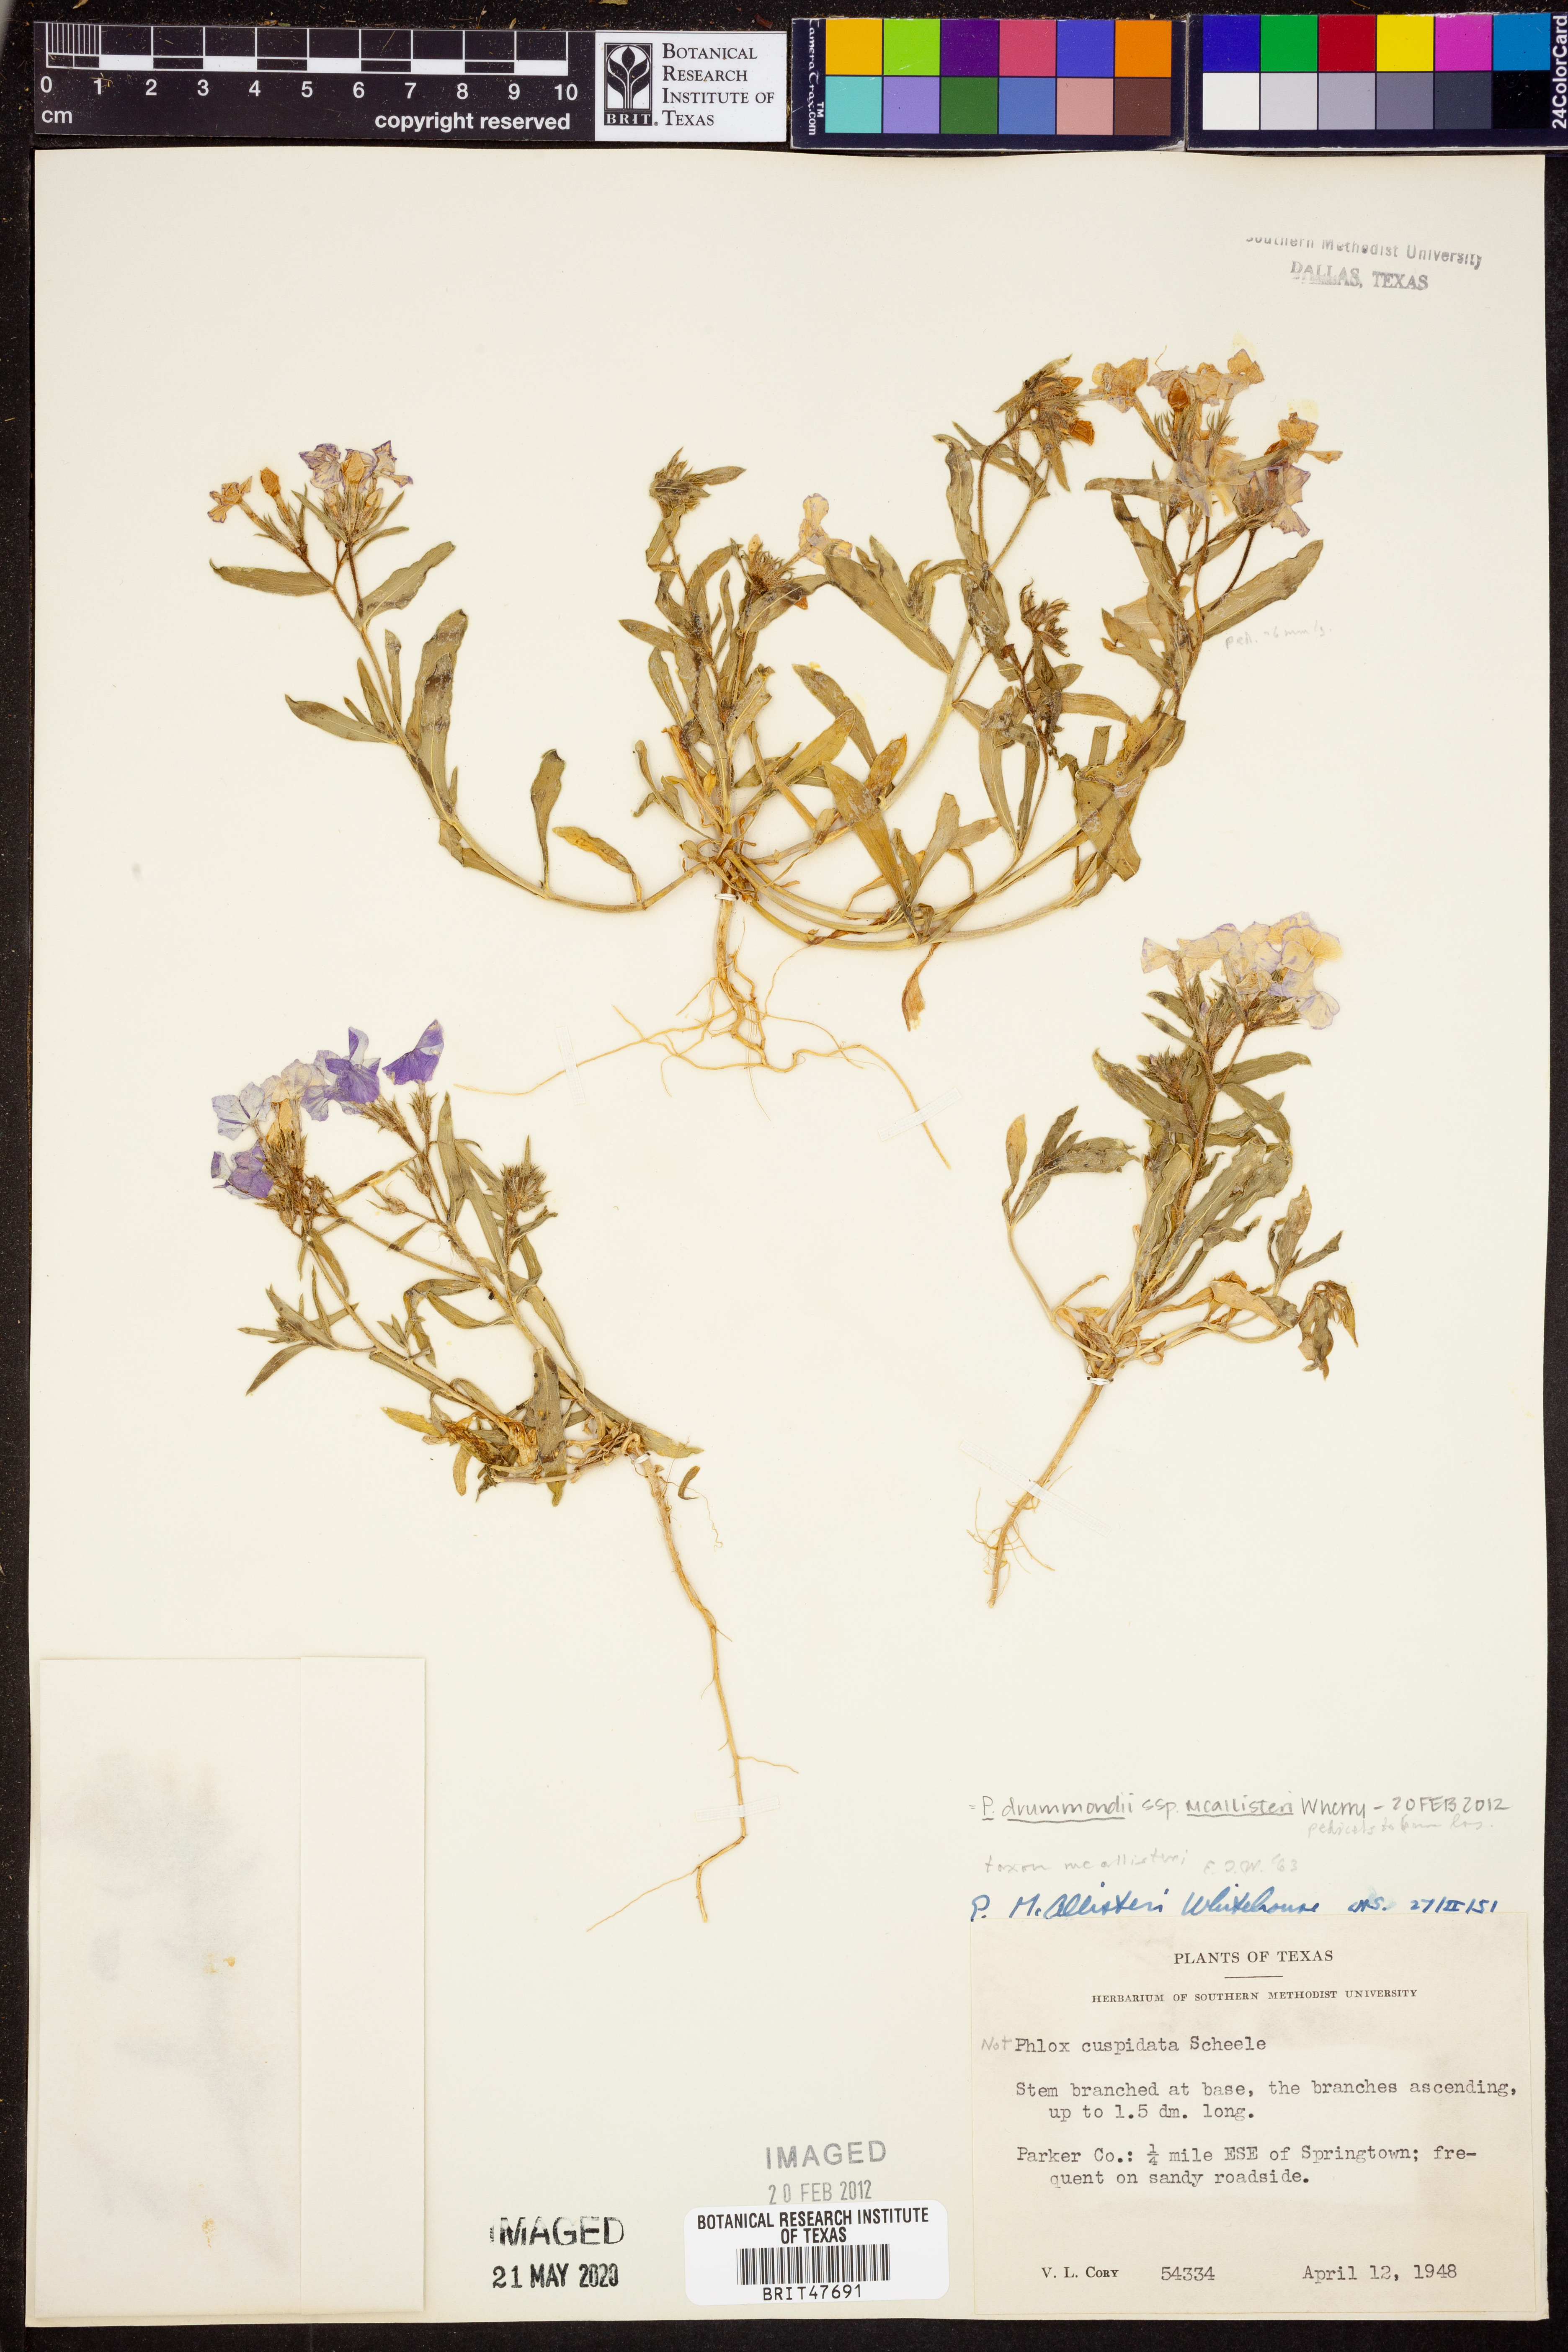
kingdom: Plantae
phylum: Tracheophyta
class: Magnoliopsida
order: Ericales
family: Polemoniaceae
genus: Phlox
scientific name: Phlox drummondii
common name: Drummond's phlox
